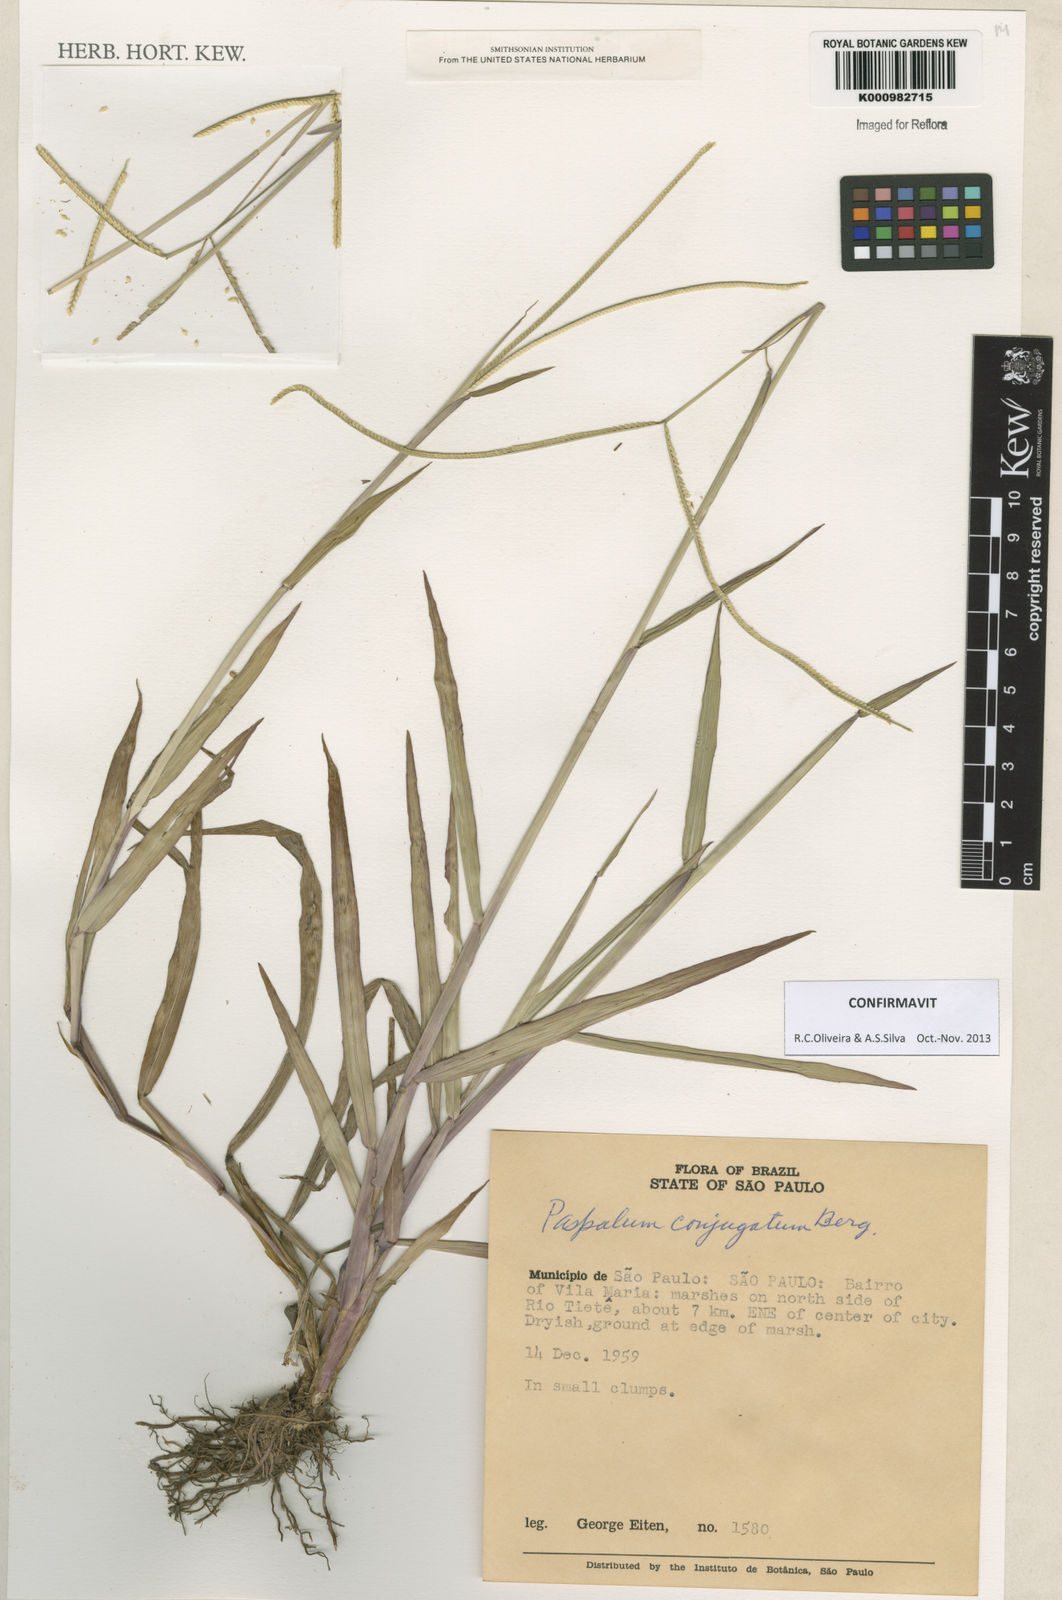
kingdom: Plantae
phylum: Tracheophyta
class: Liliopsida
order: Poales
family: Poaceae
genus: Paspalum
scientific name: Paspalum conjugatum
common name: Hilograss
